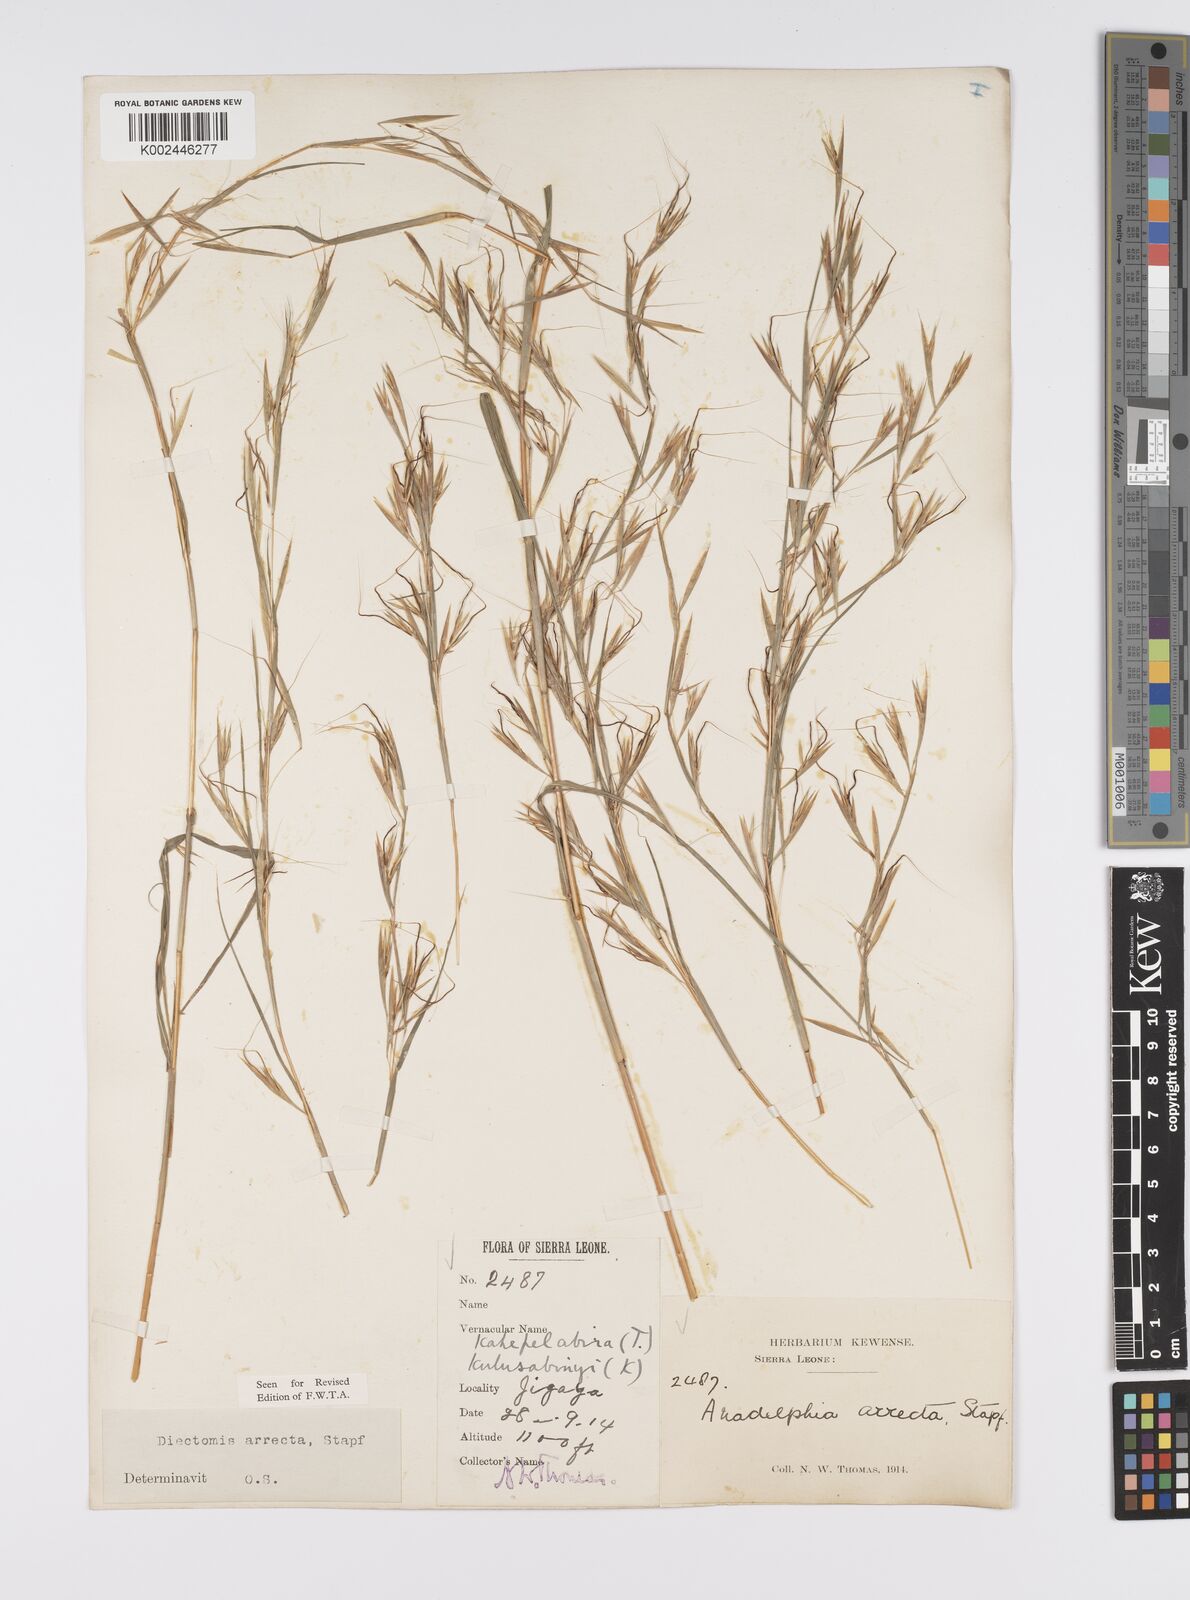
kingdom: Plantae
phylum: Tracheophyta
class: Liliopsida
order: Poales
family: Poaceae
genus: Anadelphia
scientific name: Anadelphia afzeliana
